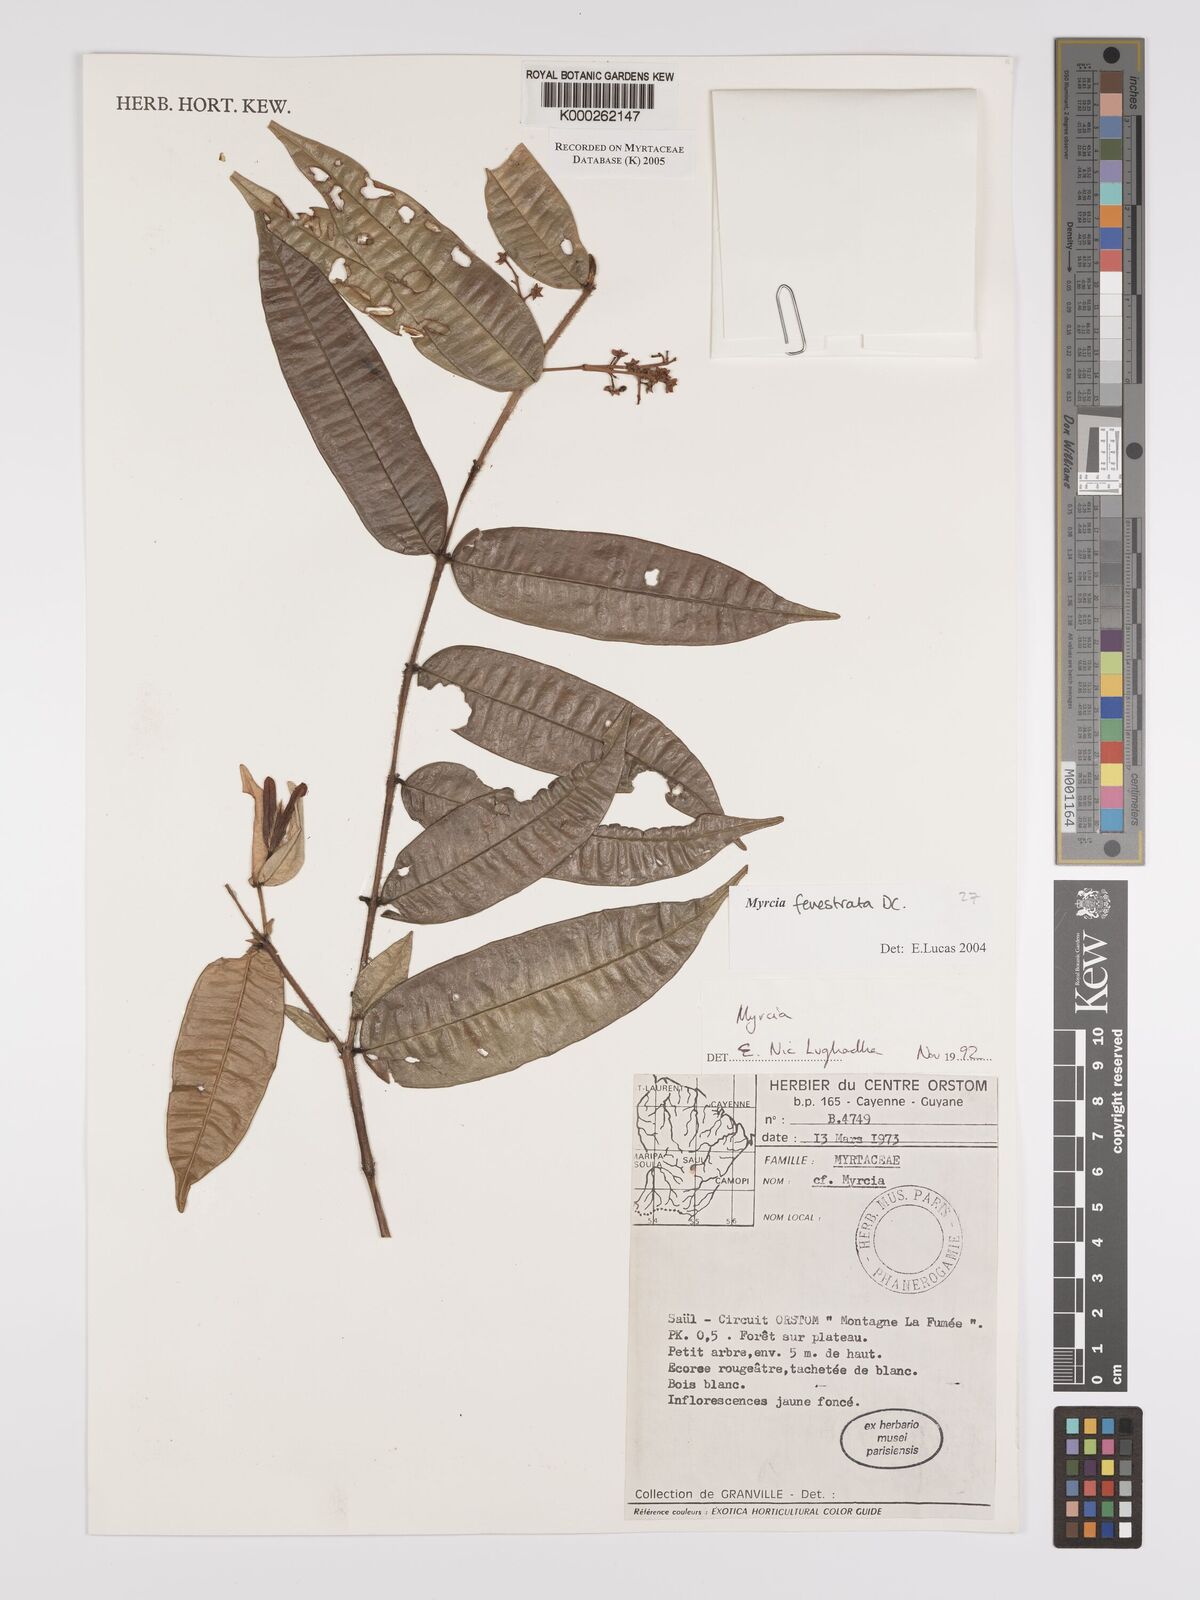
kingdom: Plantae
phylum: Tracheophyta
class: Magnoliopsida
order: Myrtales
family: Myrtaceae
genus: Myrcia
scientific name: Myrcia fenestrata
